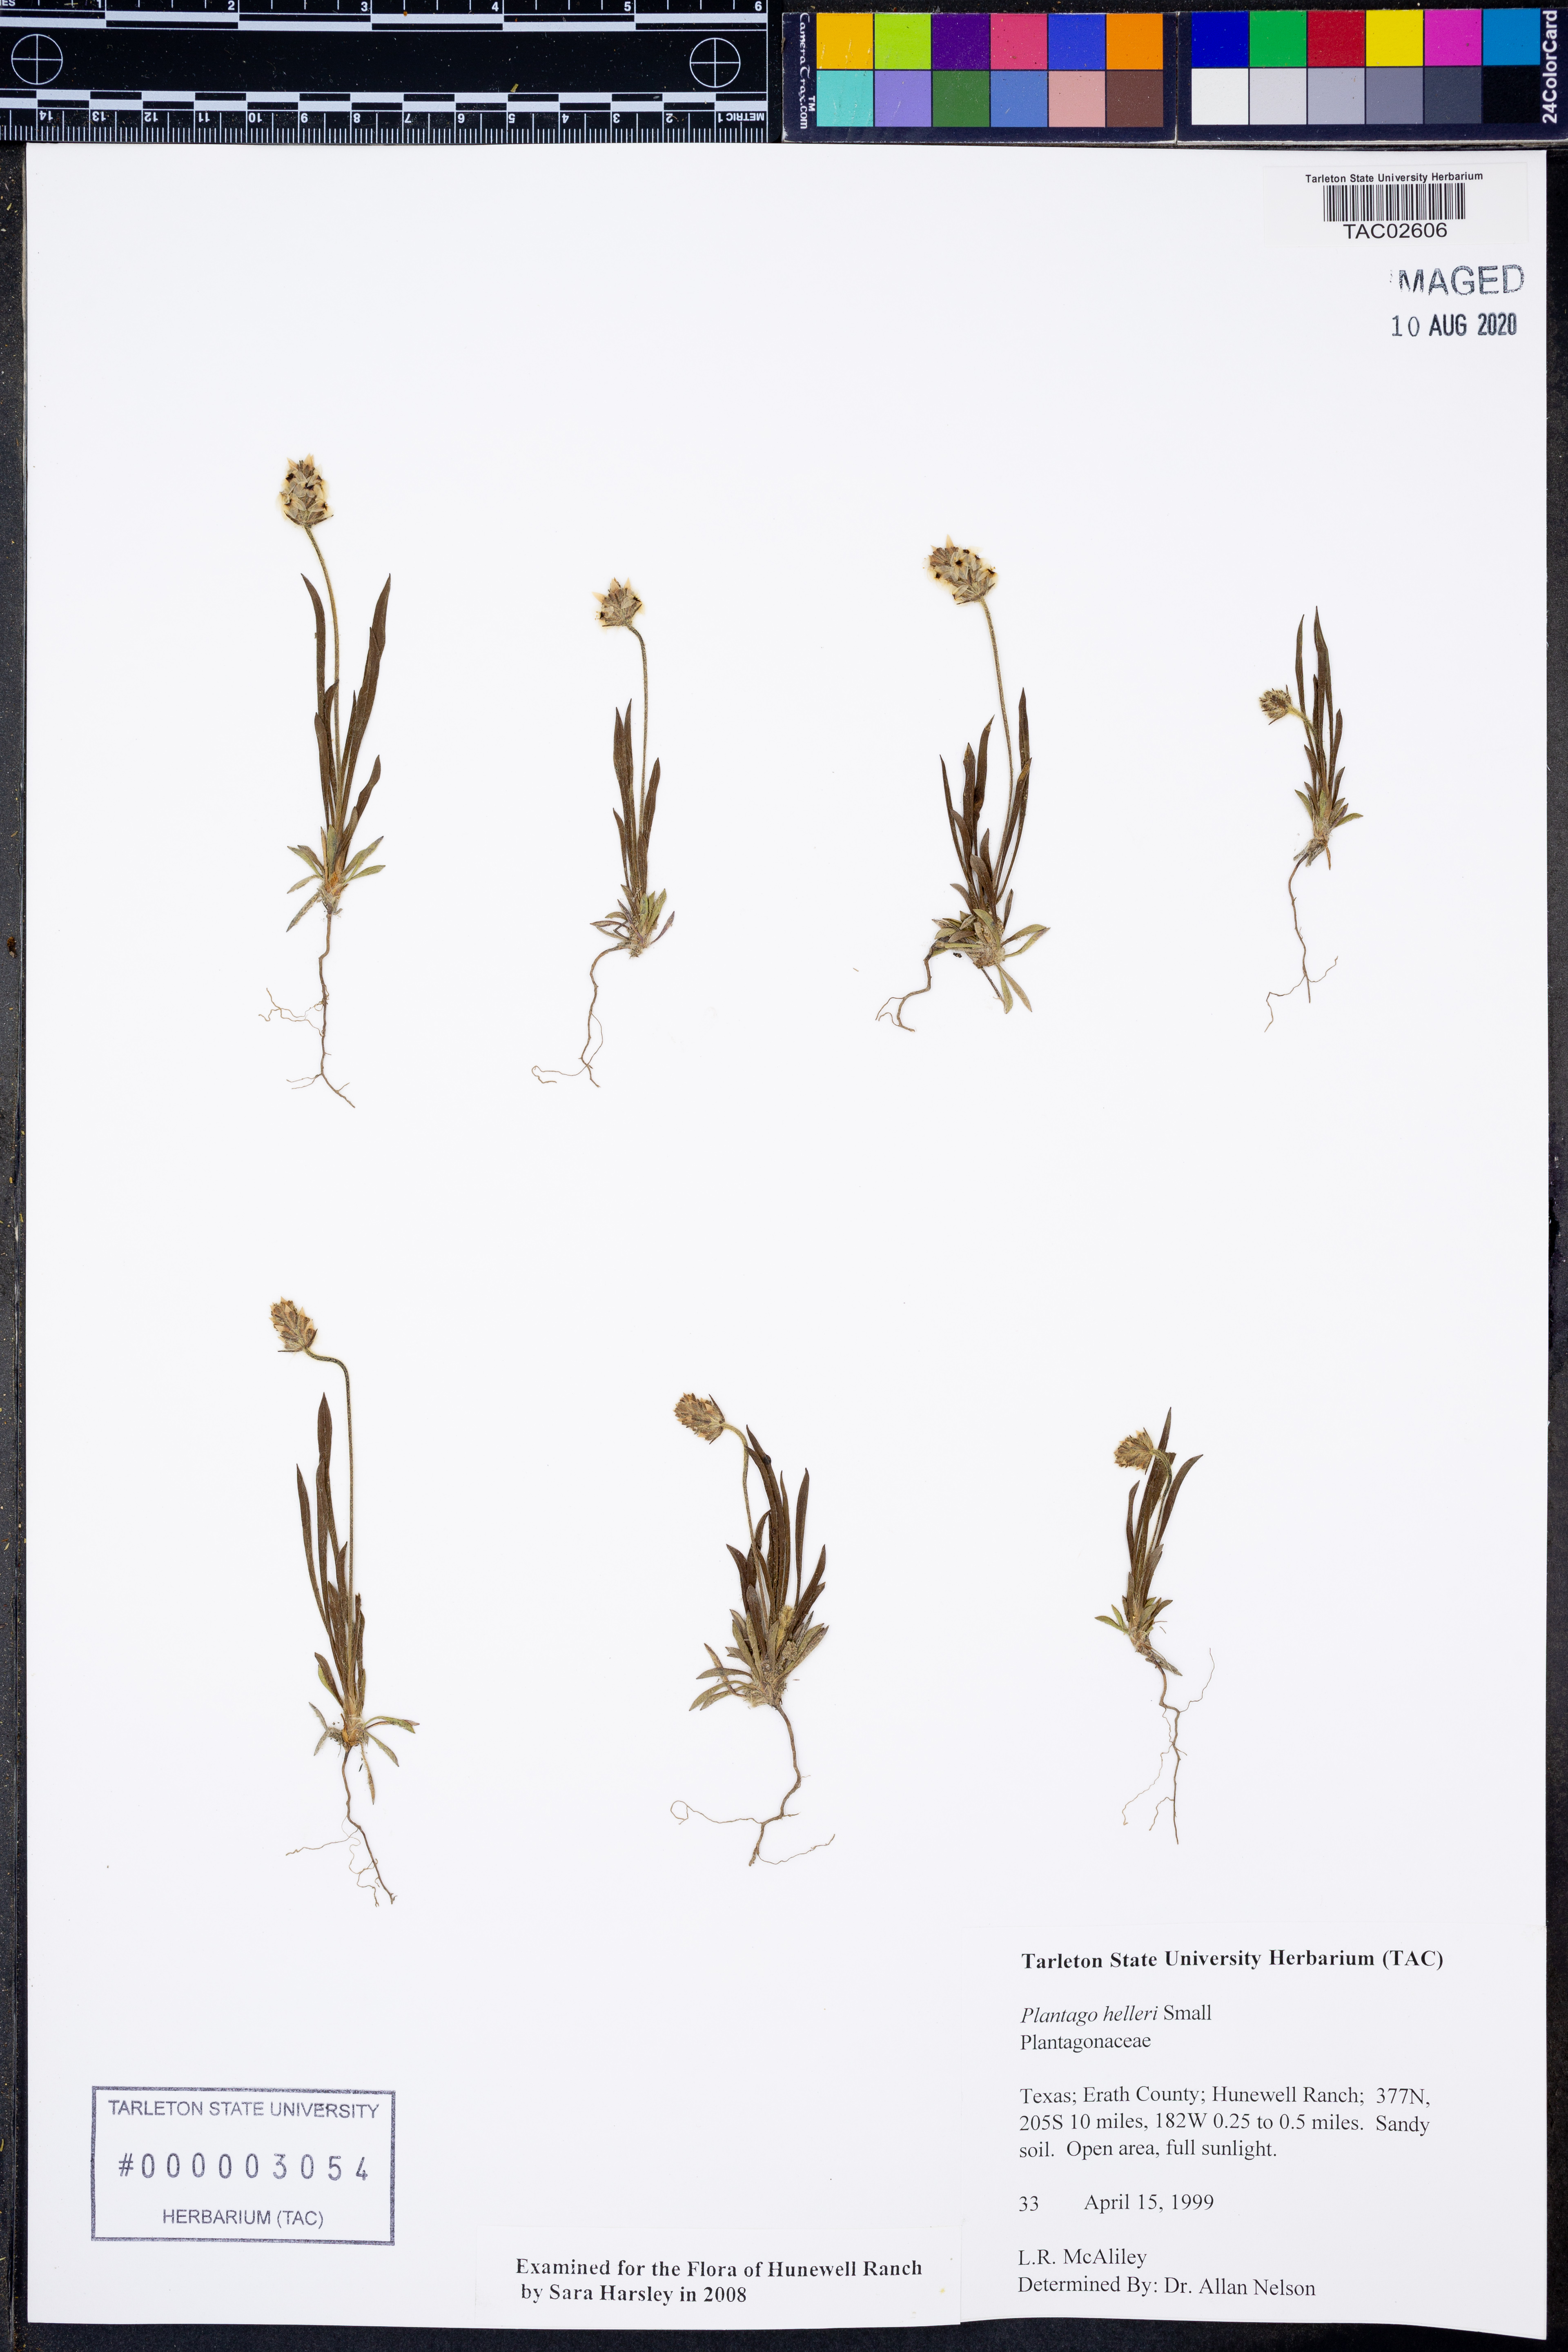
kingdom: Plantae
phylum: Tracheophyta
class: Magnoliopsida
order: Lamiales
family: Plantaginaceae
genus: Plantago
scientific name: Plantago helleri
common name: Heller's plantain
